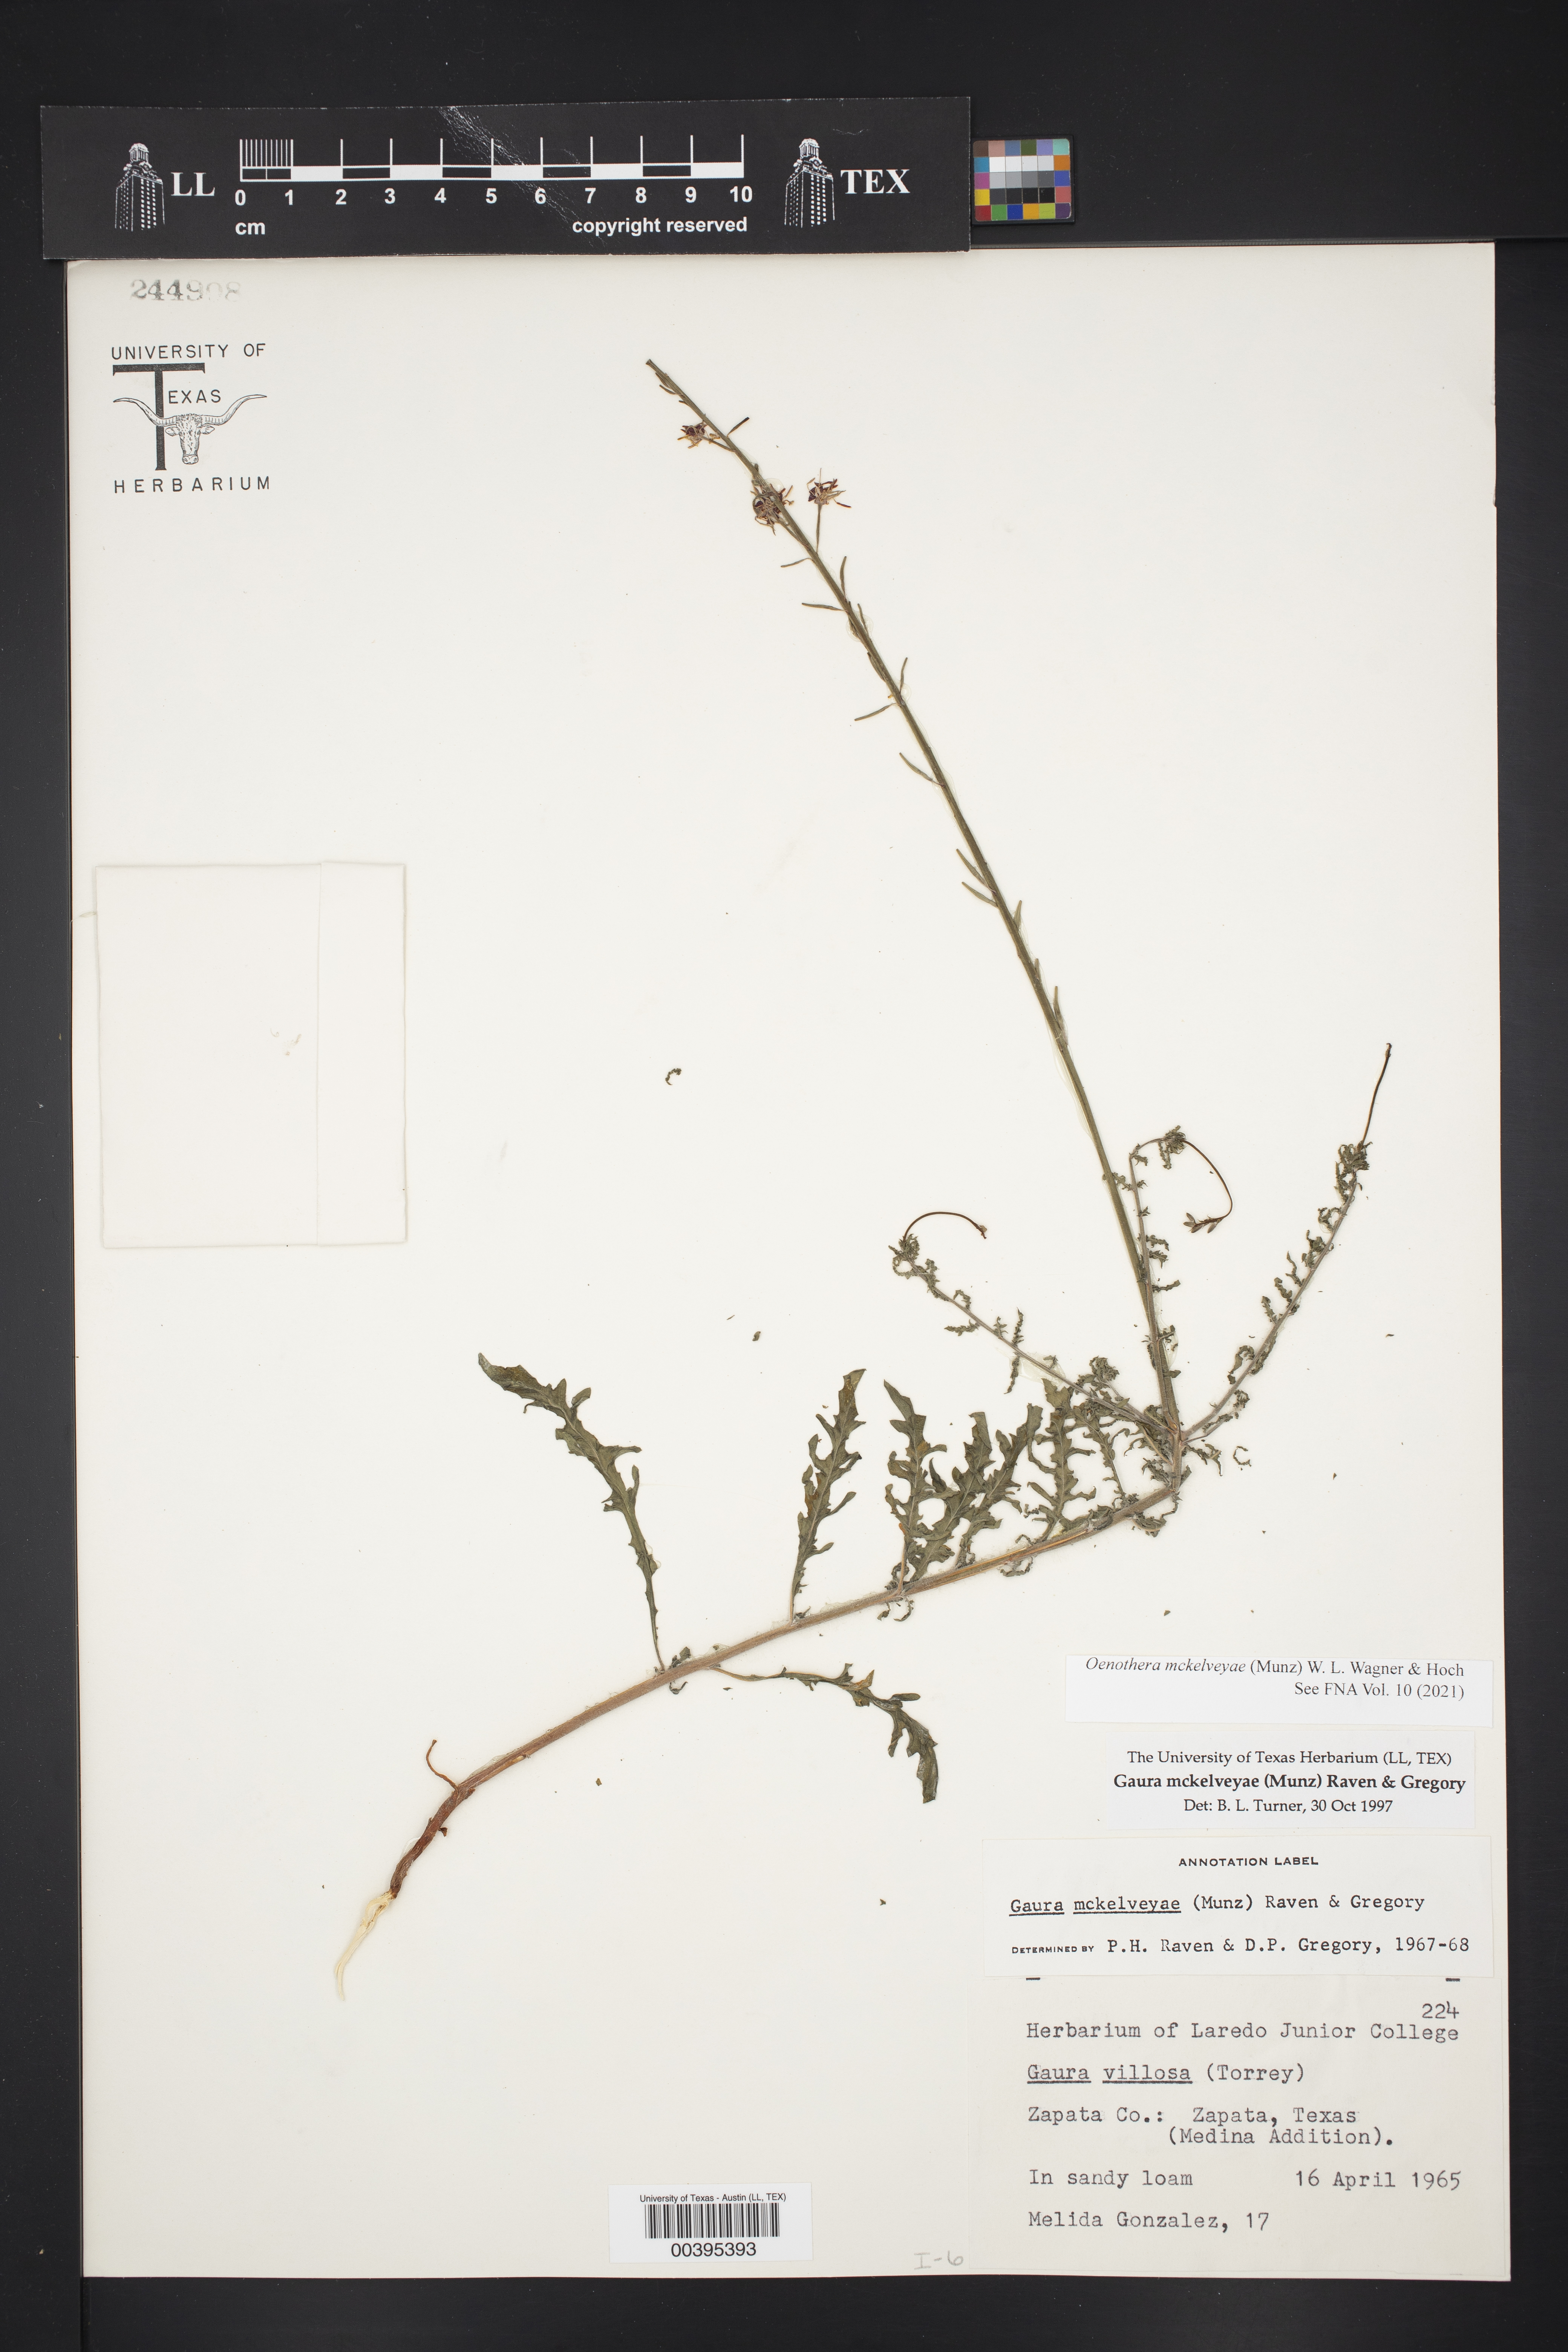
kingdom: Plantae
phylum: Tracheophyta
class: Magnoliopsida
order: Myrtales
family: Onagraceae
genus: Oenothera
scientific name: Oenothera mckelveyae
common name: Mckelvey's beeblossom
